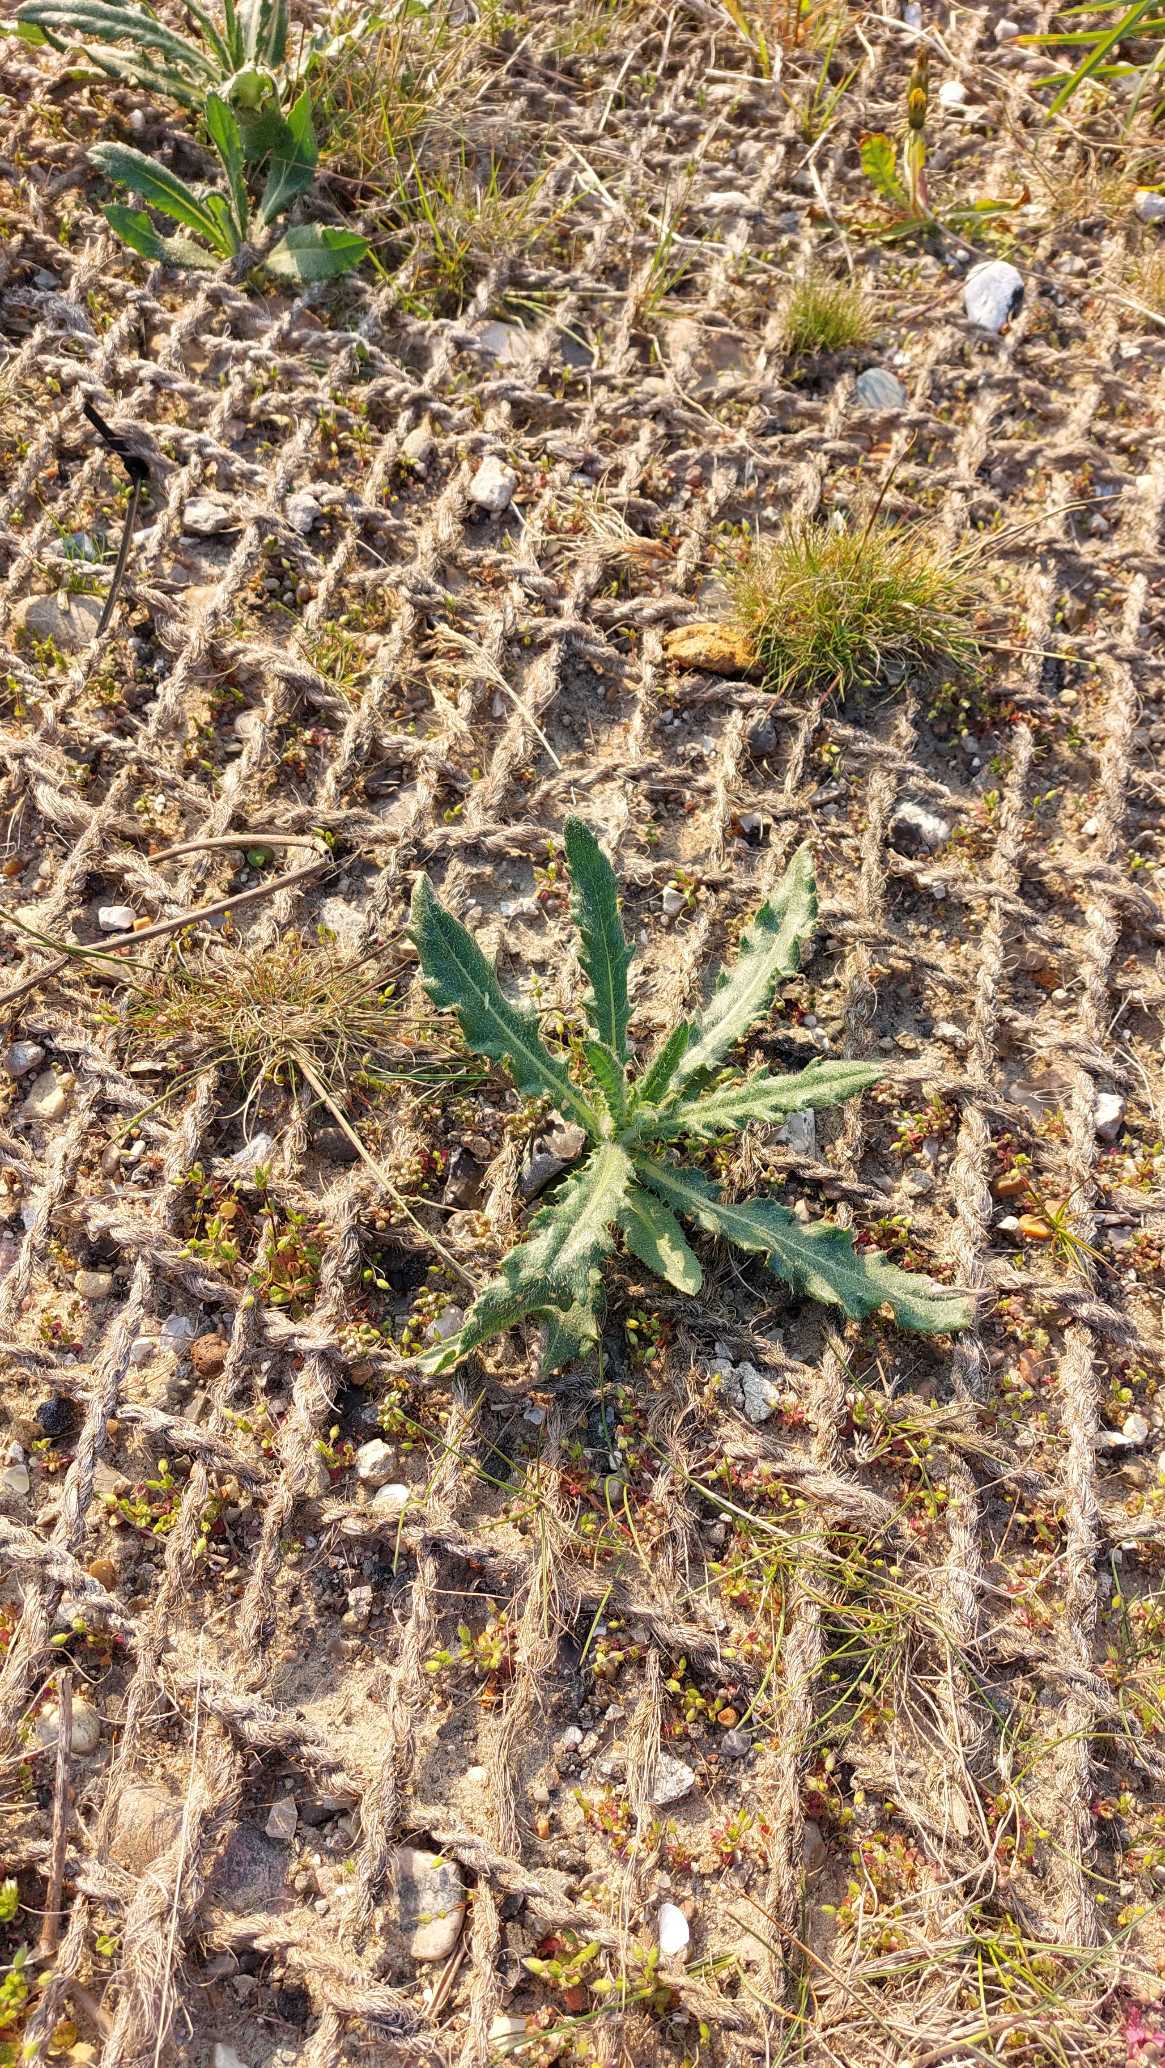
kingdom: Plantae
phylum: Tracheophyta
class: Magnoliopsida
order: Asterales
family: Asteraceae
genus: Cirsium
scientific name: Cirsium arvense
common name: Ager-tidsel
